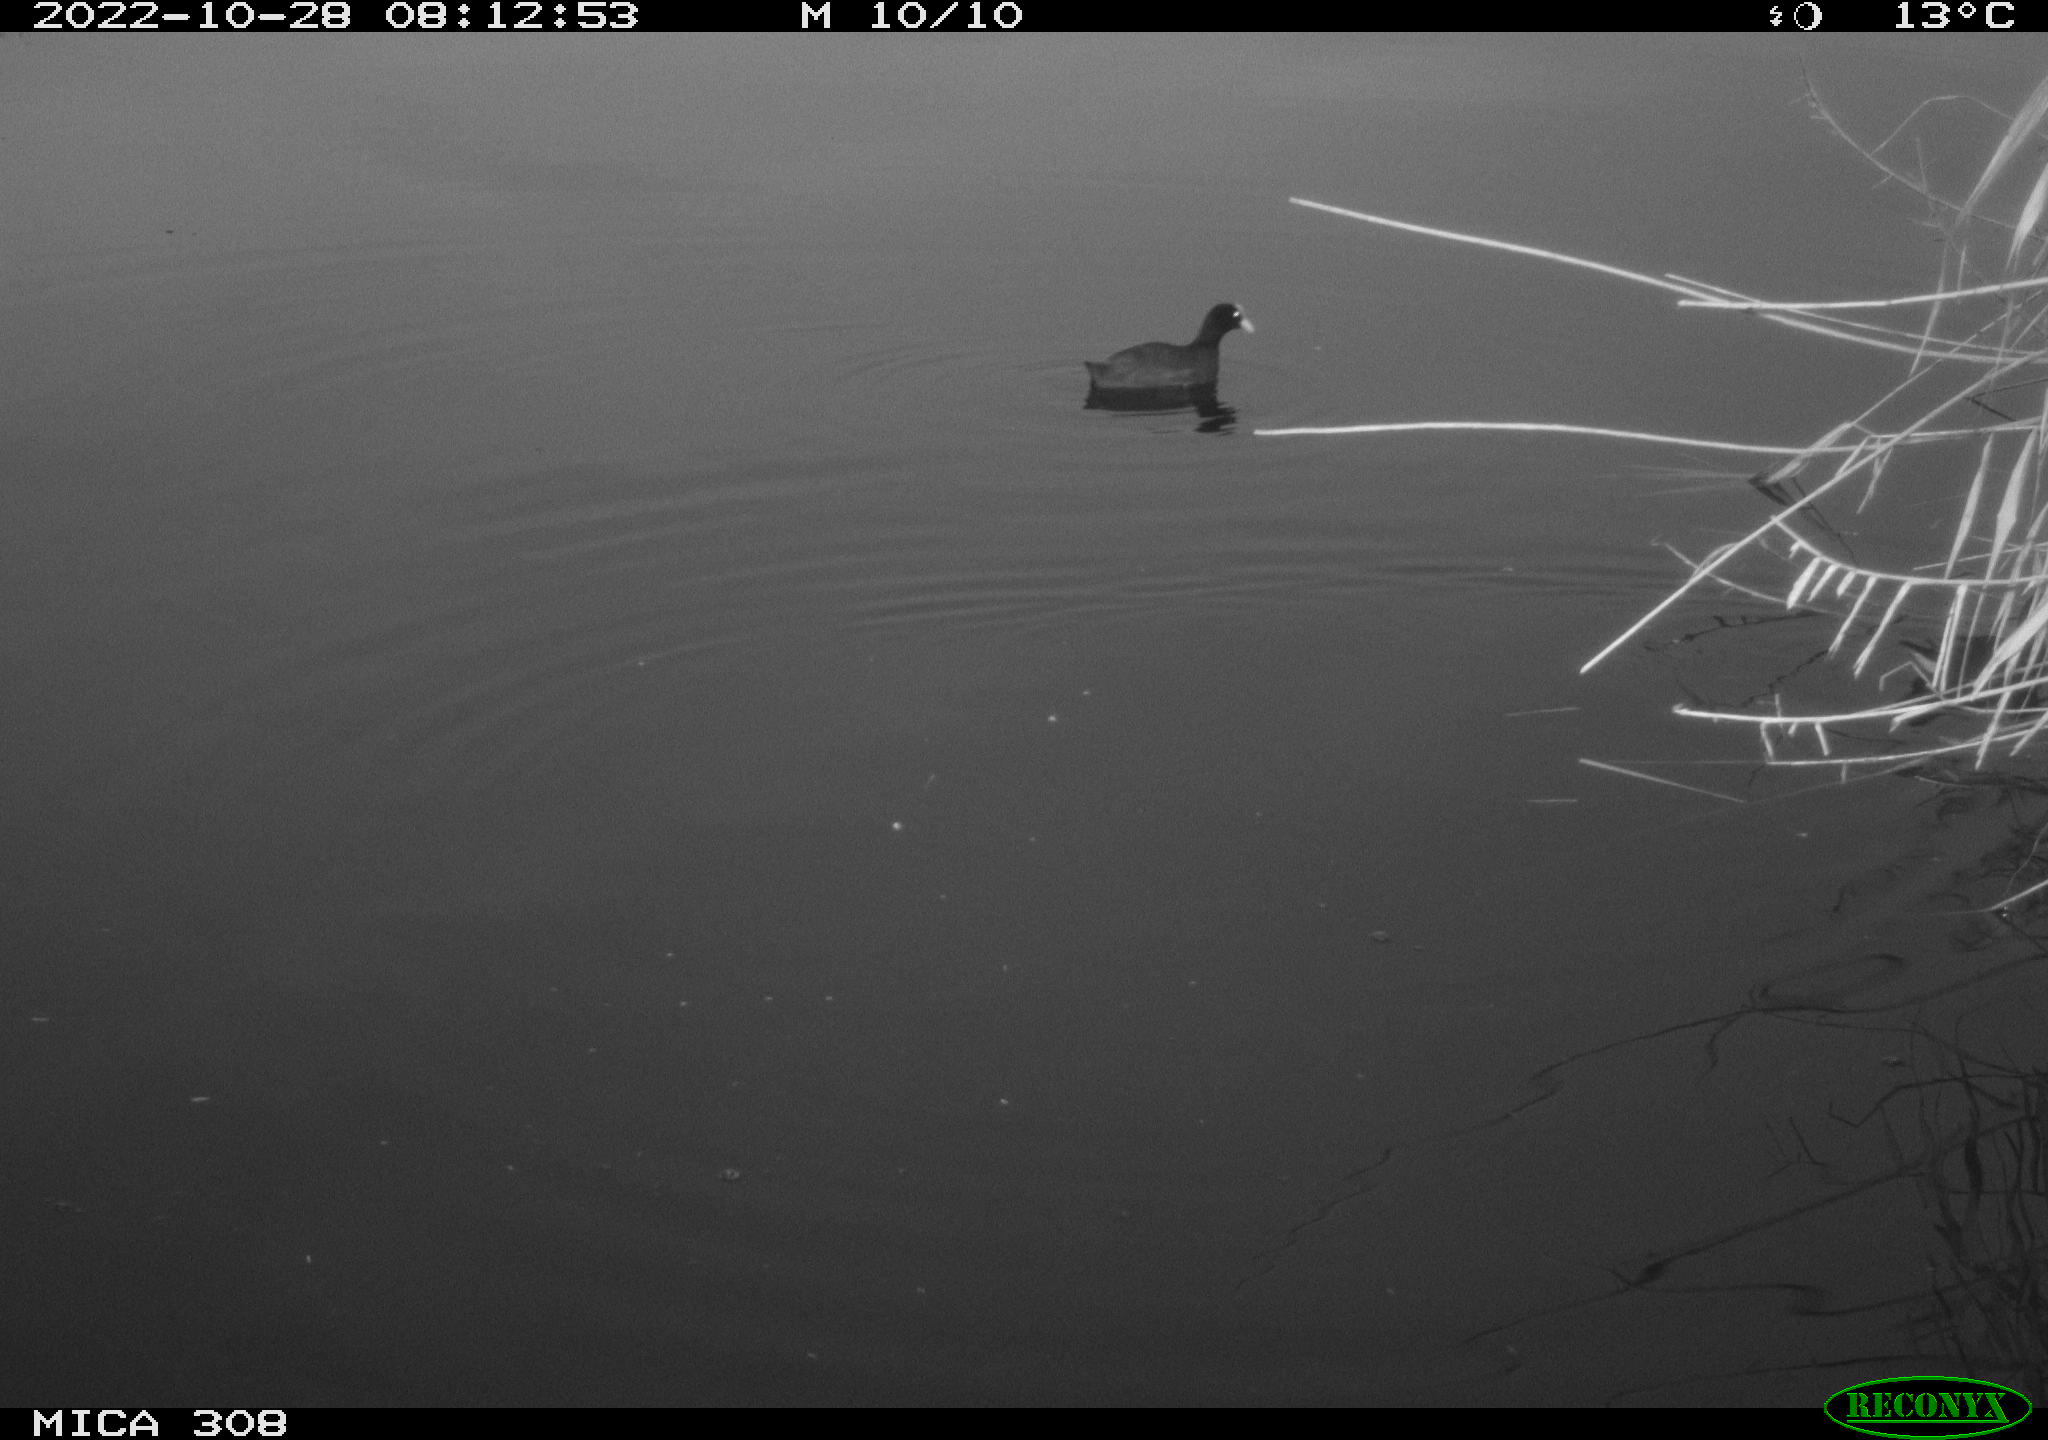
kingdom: Animalia
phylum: Chordata
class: Aves
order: Gruiformes
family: Rallidae
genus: Gallinula
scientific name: Gallinula chloropus
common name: Common moorhen
